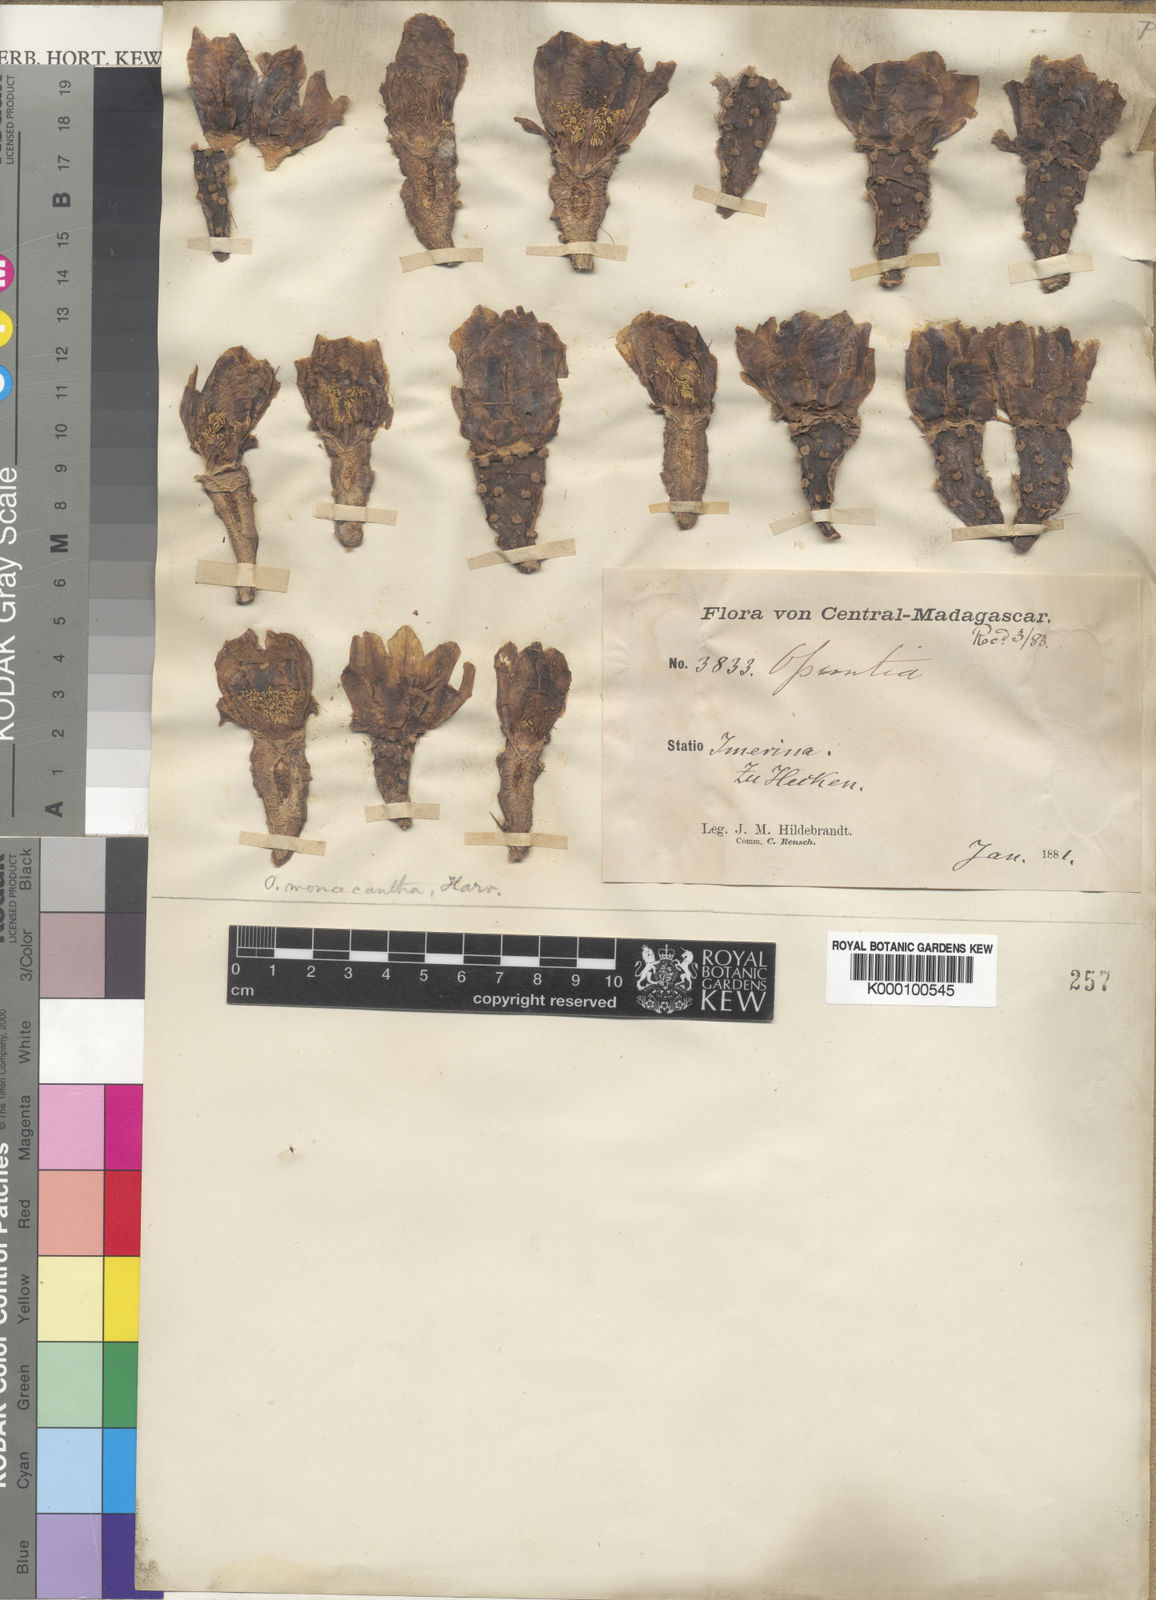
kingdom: Plantae
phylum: Tracheophyta
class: Magnoliopsida
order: Caryophyllales
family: Cactaceae
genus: Opuntia
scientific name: Opuntia monacantha
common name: Common pricklypear
